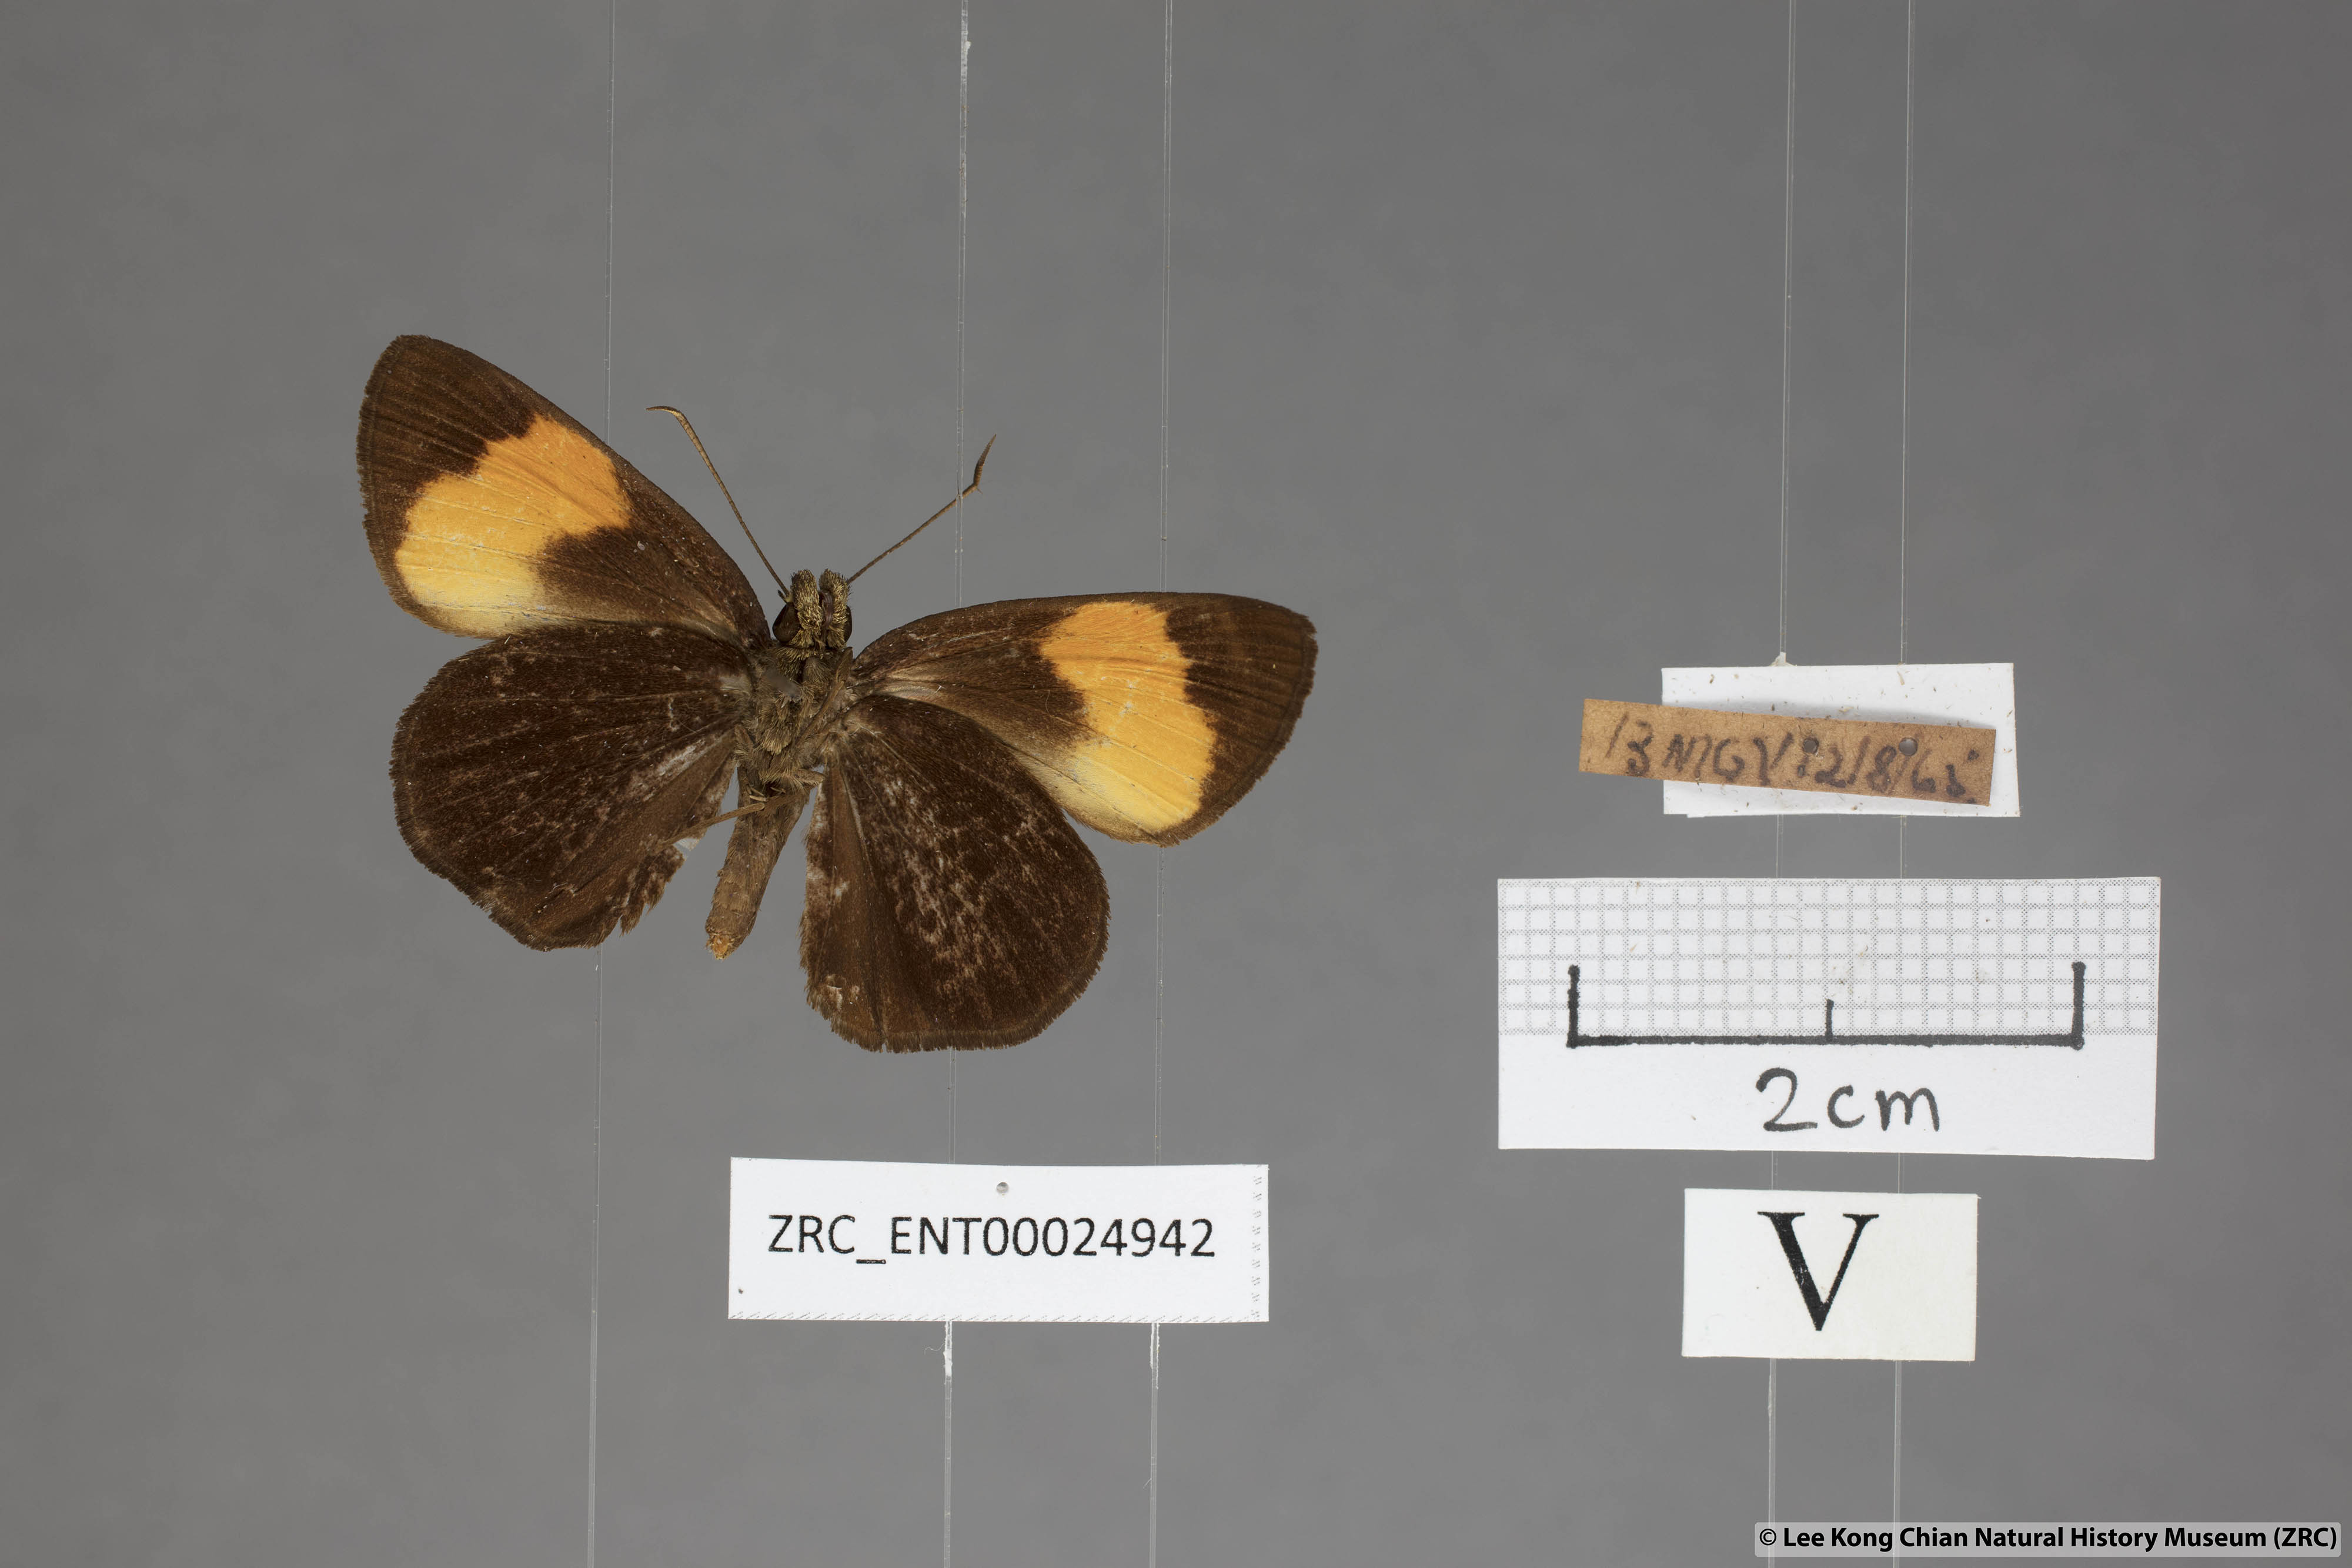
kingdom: Animalia
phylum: Arthropoda
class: Insecta
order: Lepidoptera
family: Hesperiidae
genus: Koruthaialos
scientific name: Koruthaialos sindu
